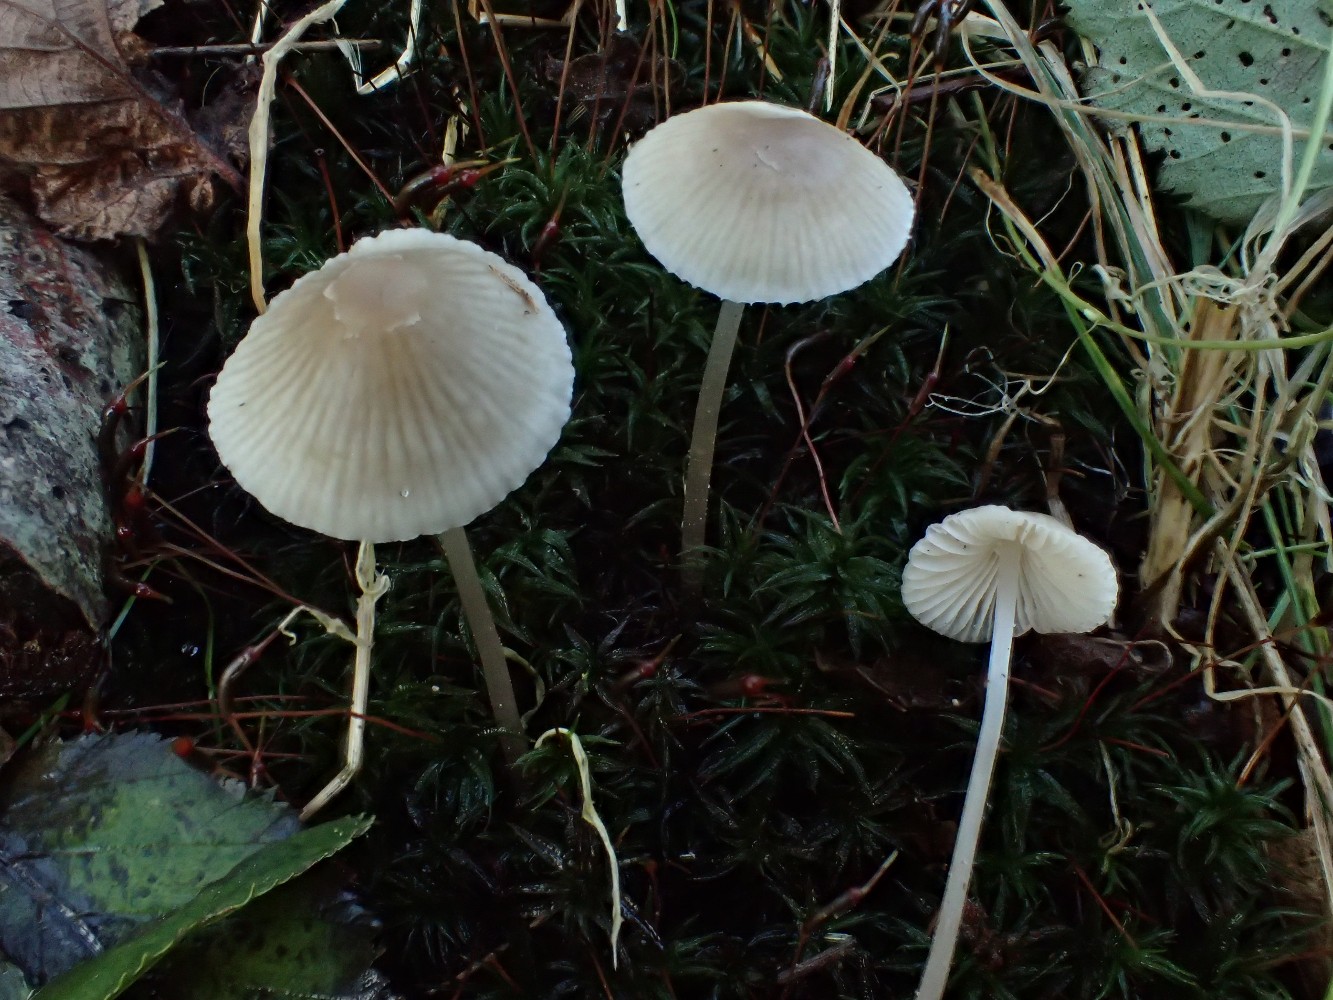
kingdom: Fungi
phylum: Basidiomycota
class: Agaricomycetes
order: Agaricales
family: Mycenaceae
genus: Mycena
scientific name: Mycena
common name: huesvamp
